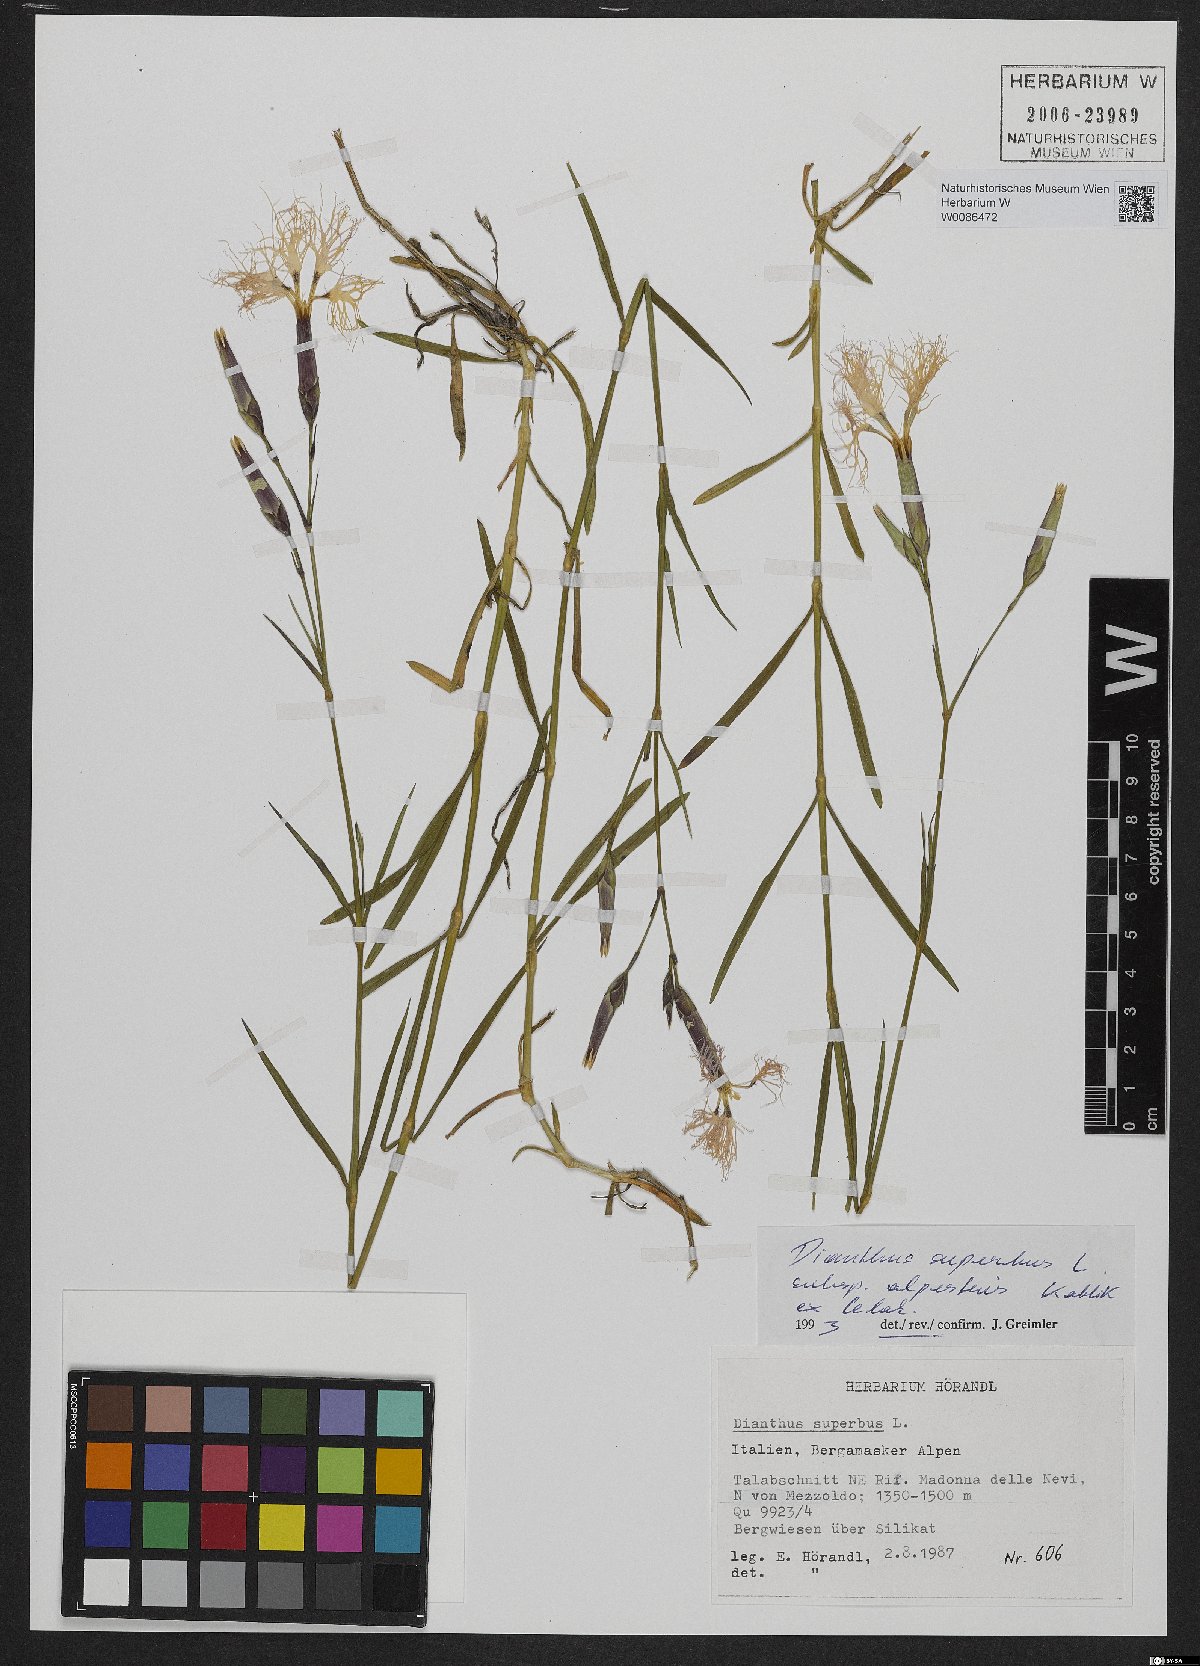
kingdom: Plantae
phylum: Tracheophyta
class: Magnoliopsida
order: Caryophyllales
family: Caryophyllaceae
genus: Dianthus
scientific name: Dianthus superbus
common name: Fringed pink
